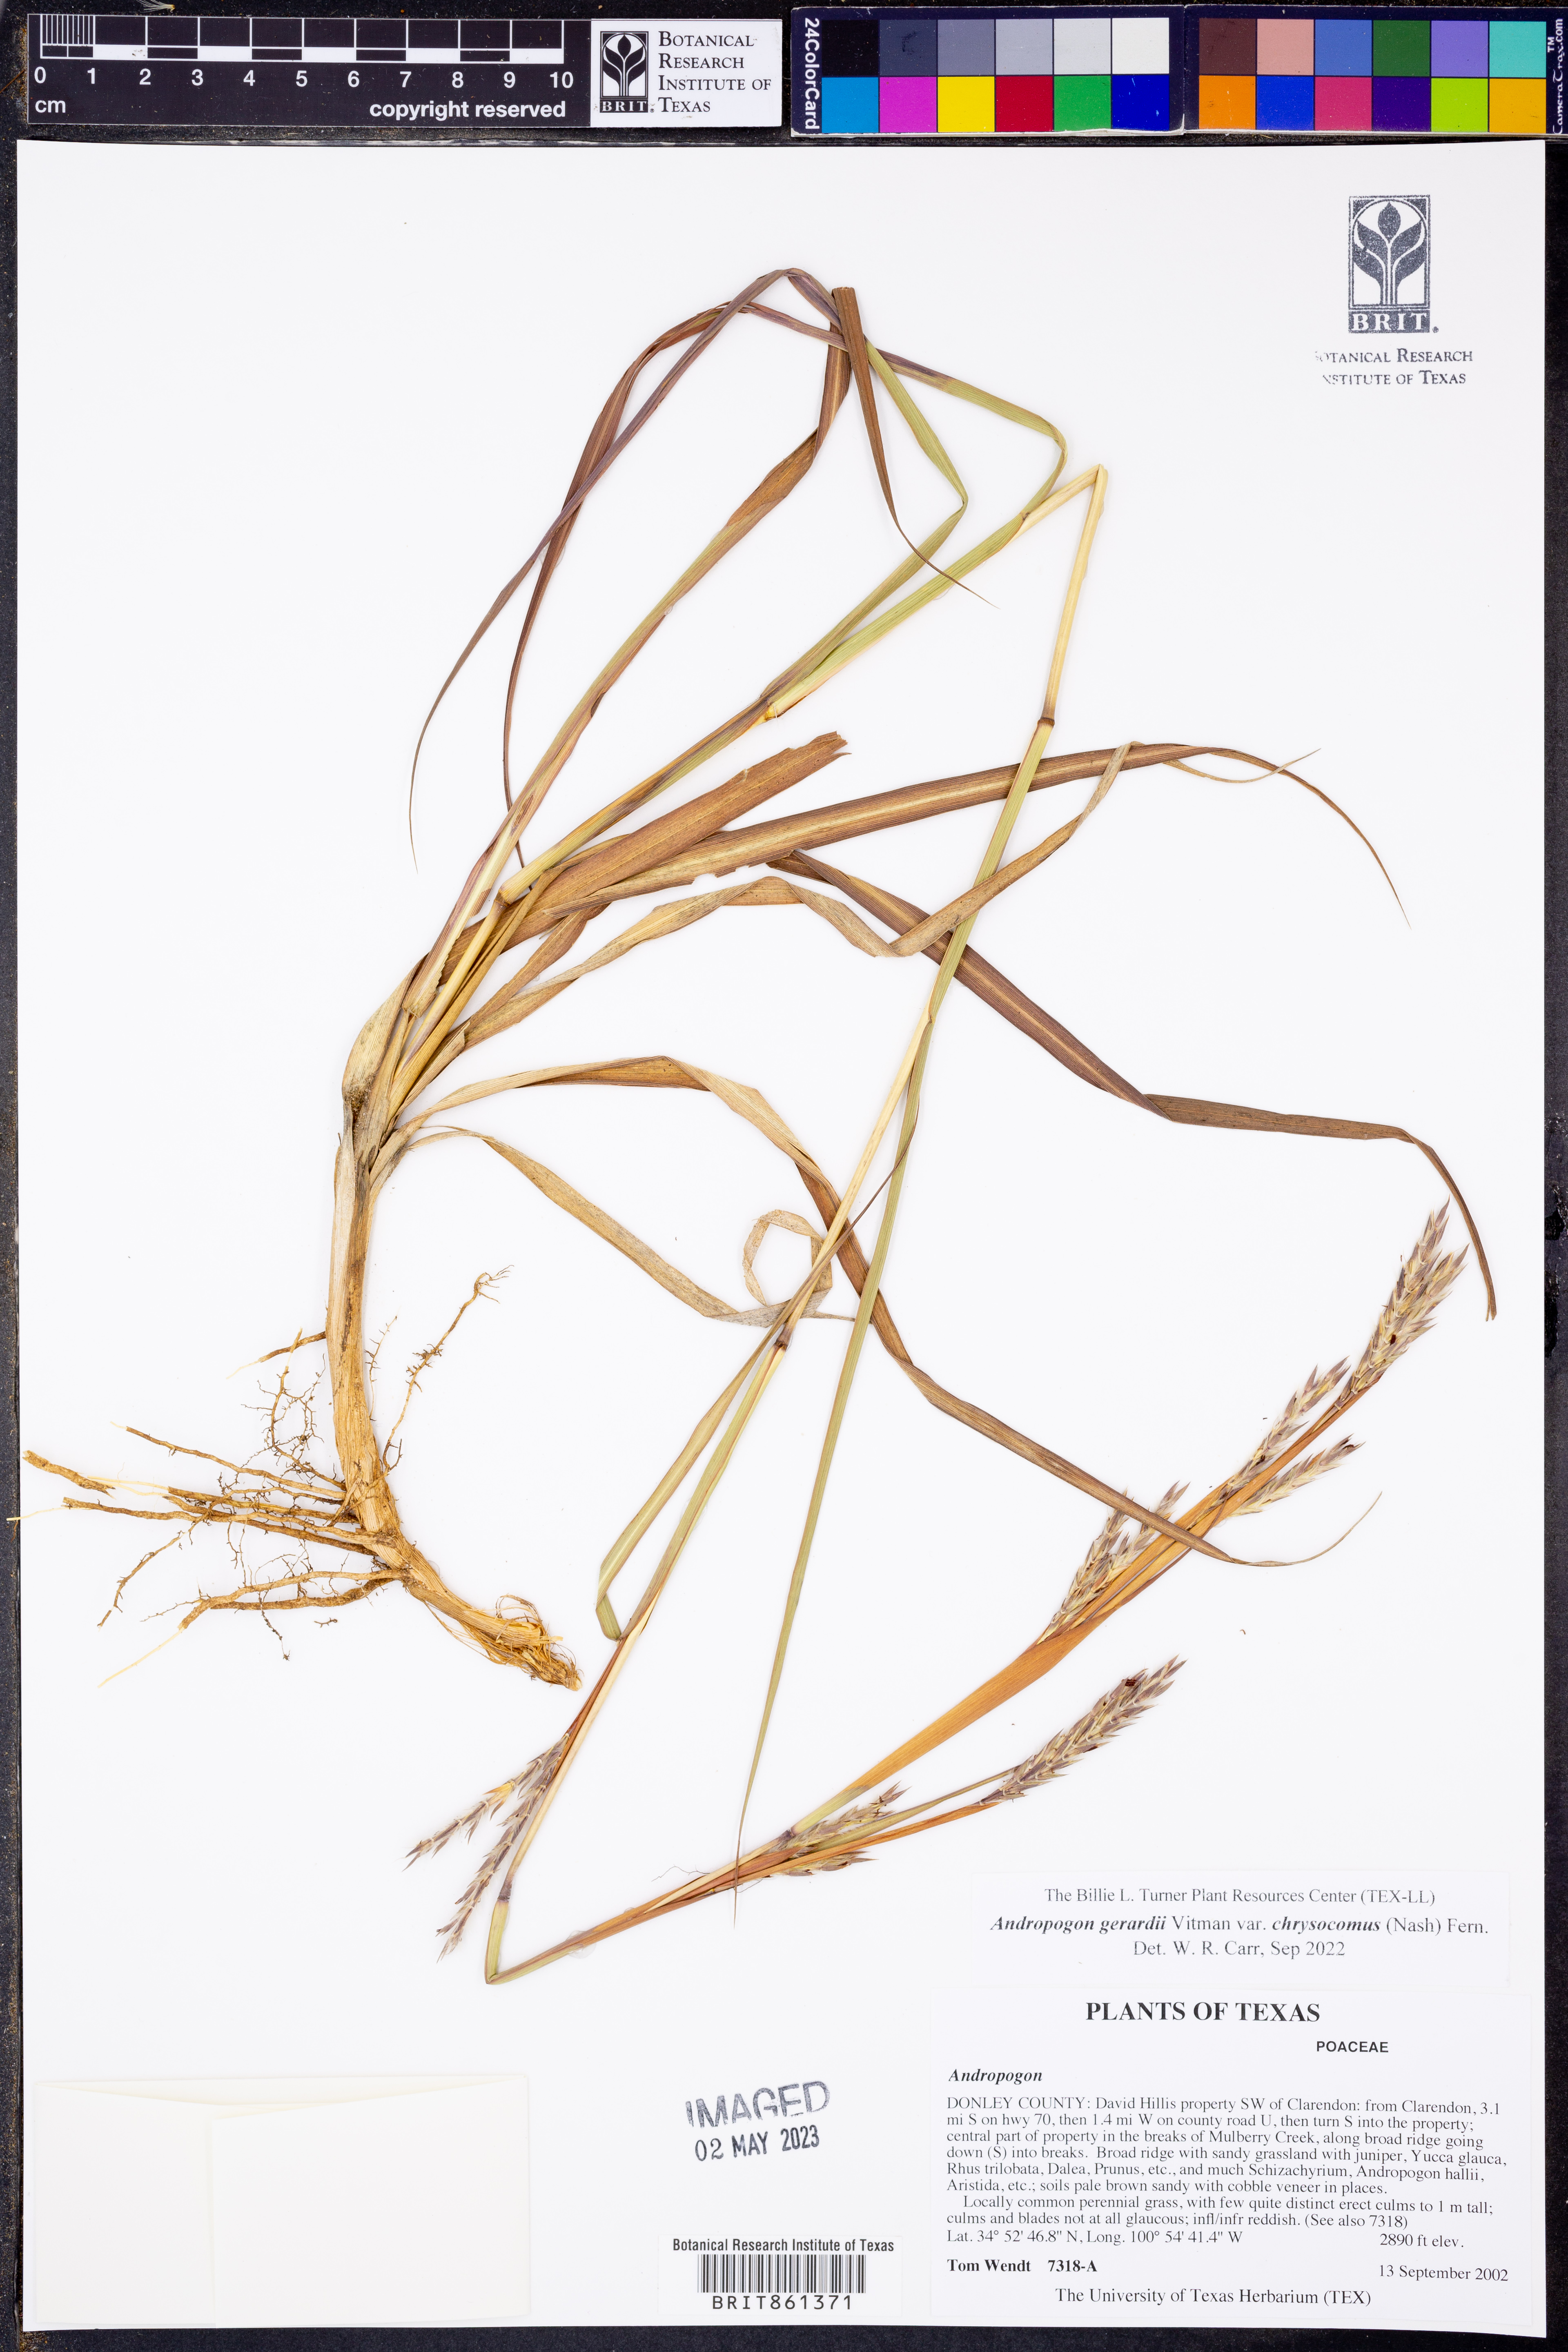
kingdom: Plantae
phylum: Tracheophyta
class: Liliopsida
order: Poales
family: Poaceae
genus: Andropogon
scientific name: Andropogon gerardi
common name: Big bluestem
